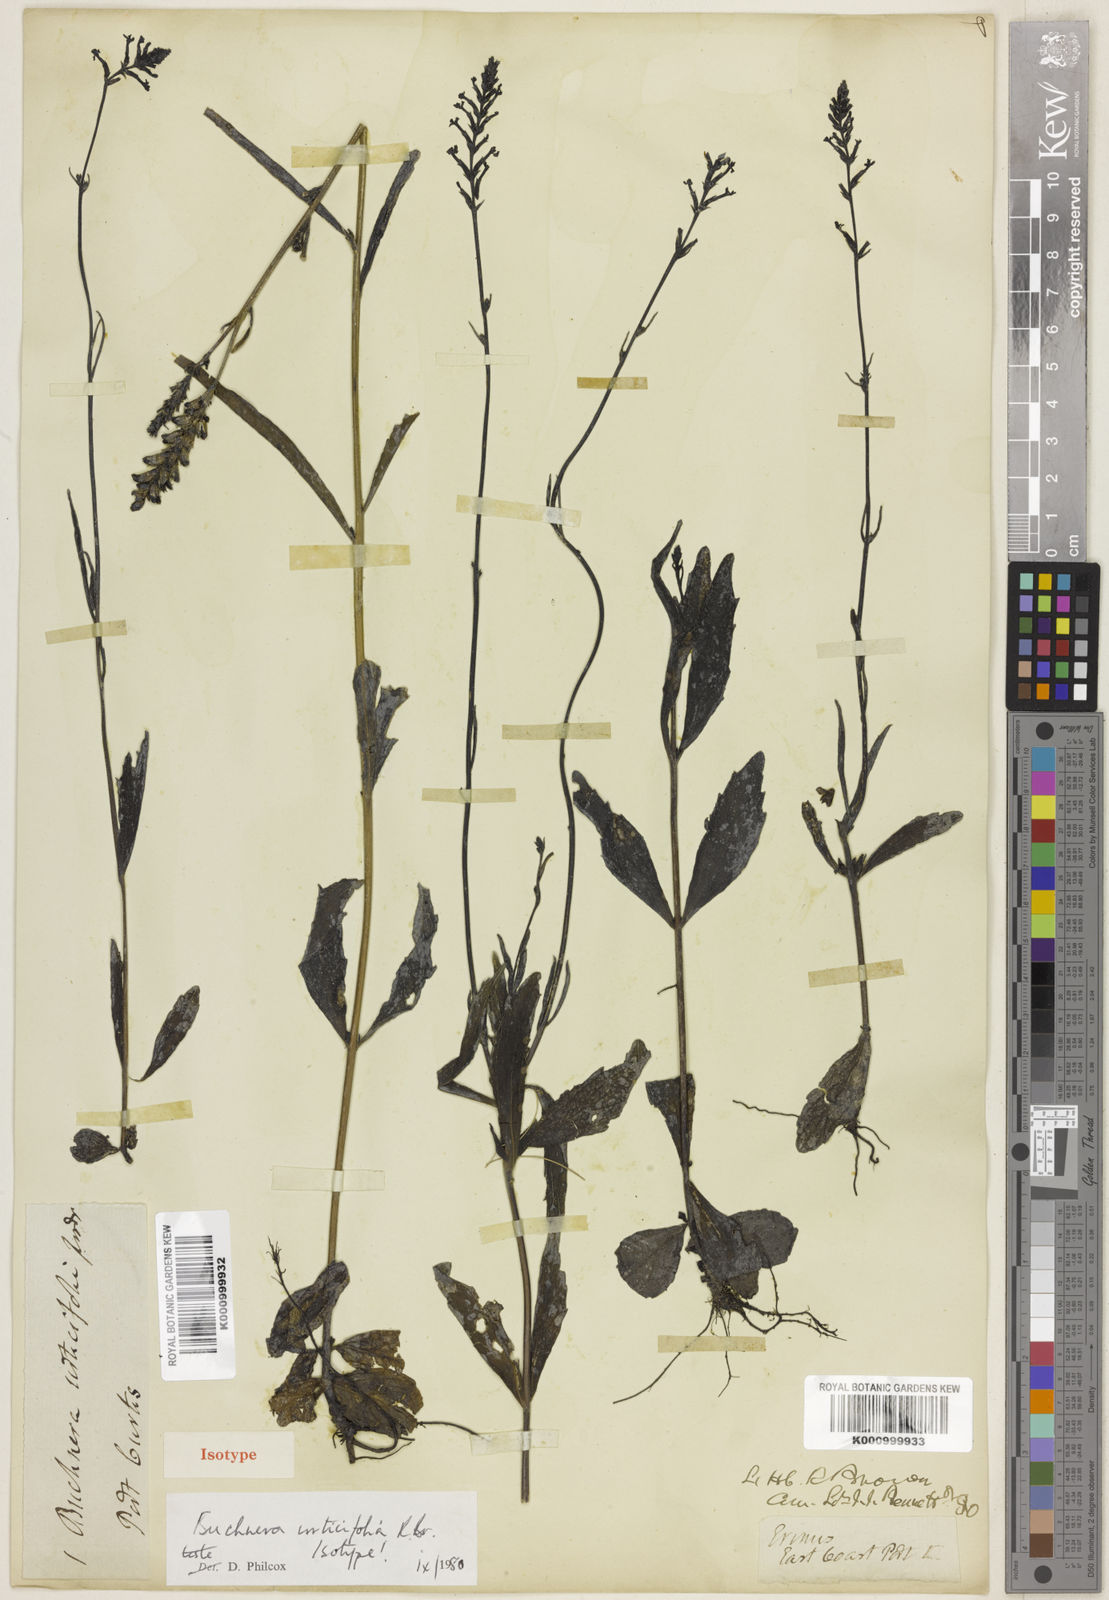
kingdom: Plantae
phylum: Tracheophyta
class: Magnoliopsida
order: Lamiales
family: Orobanchaceae
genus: Buchnera
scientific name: Buchnera urticifolia
